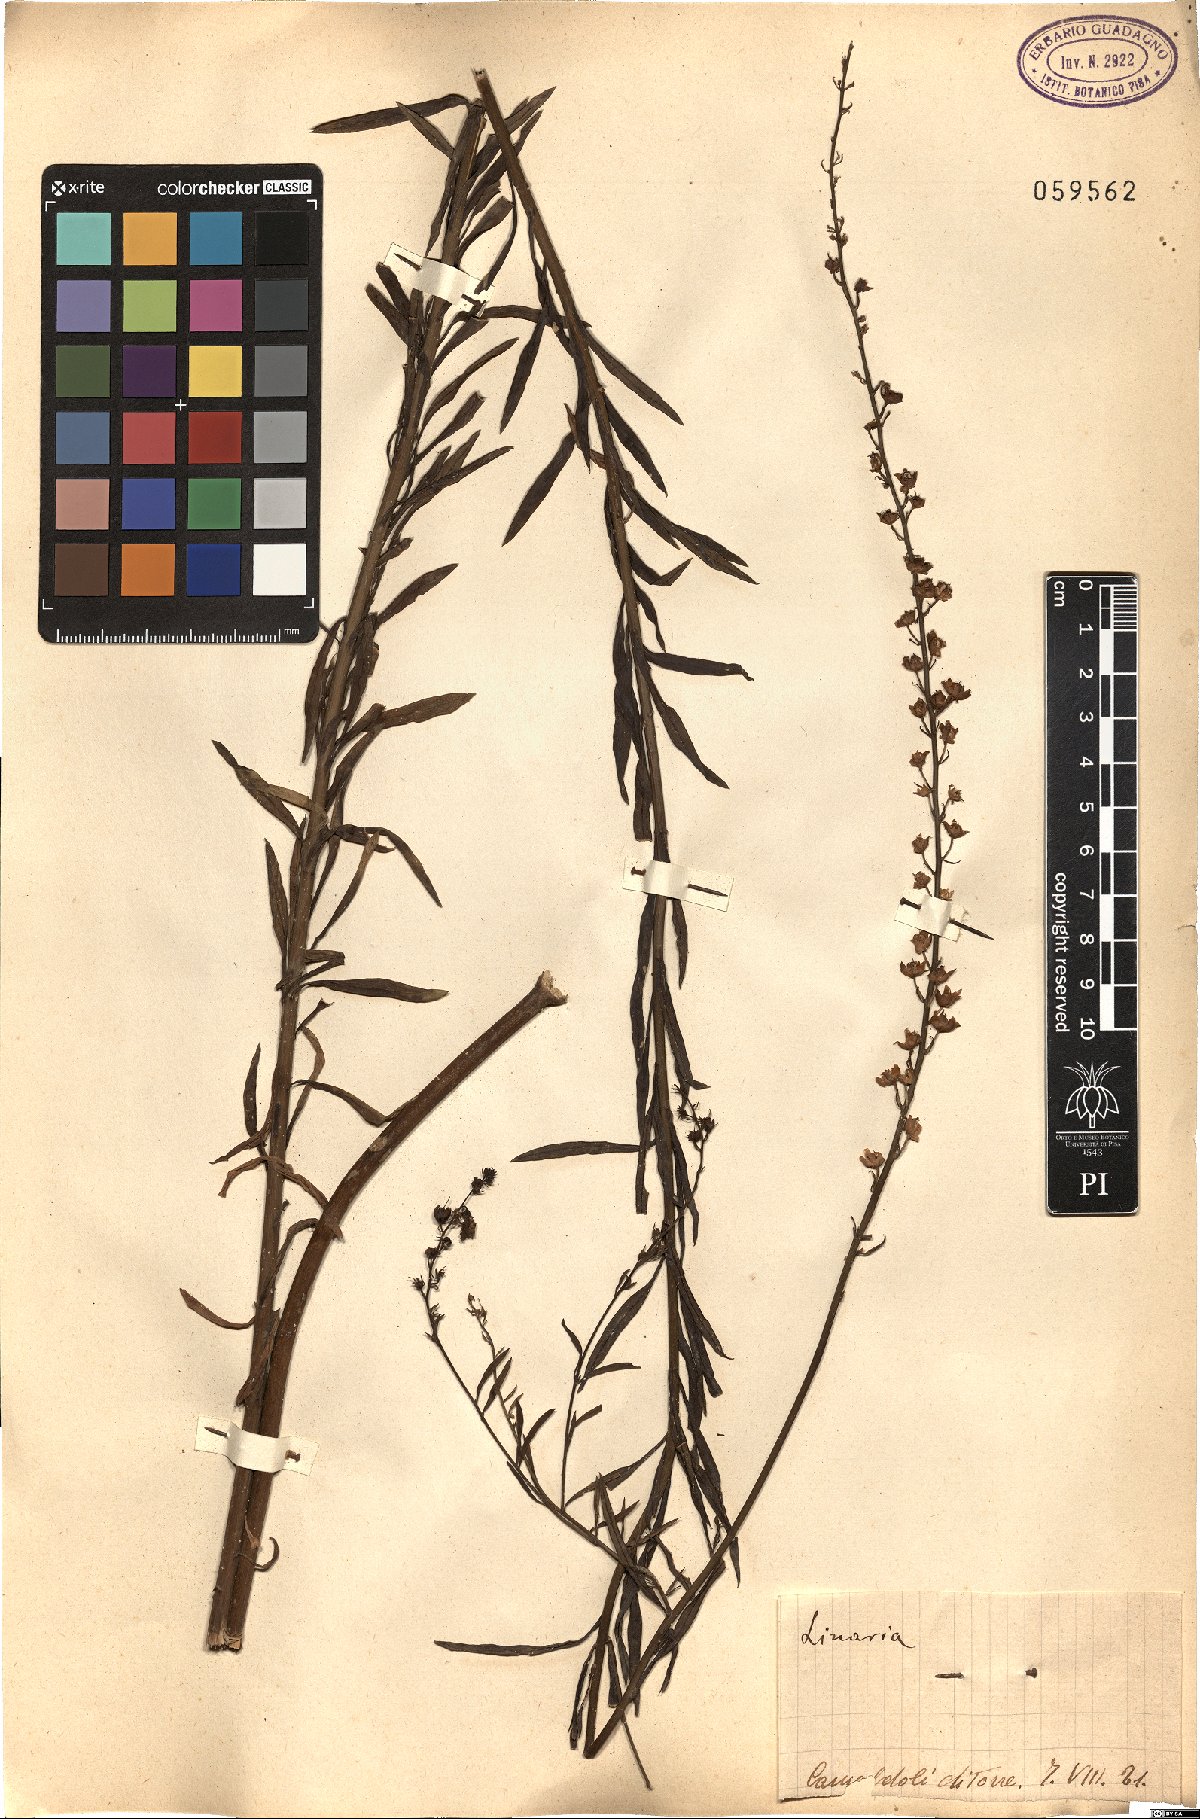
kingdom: Plantae
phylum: Tracheophyta
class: Magnoliopsida
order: Lamiales
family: Plantaginaceae
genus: Linaria
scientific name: Linaria
